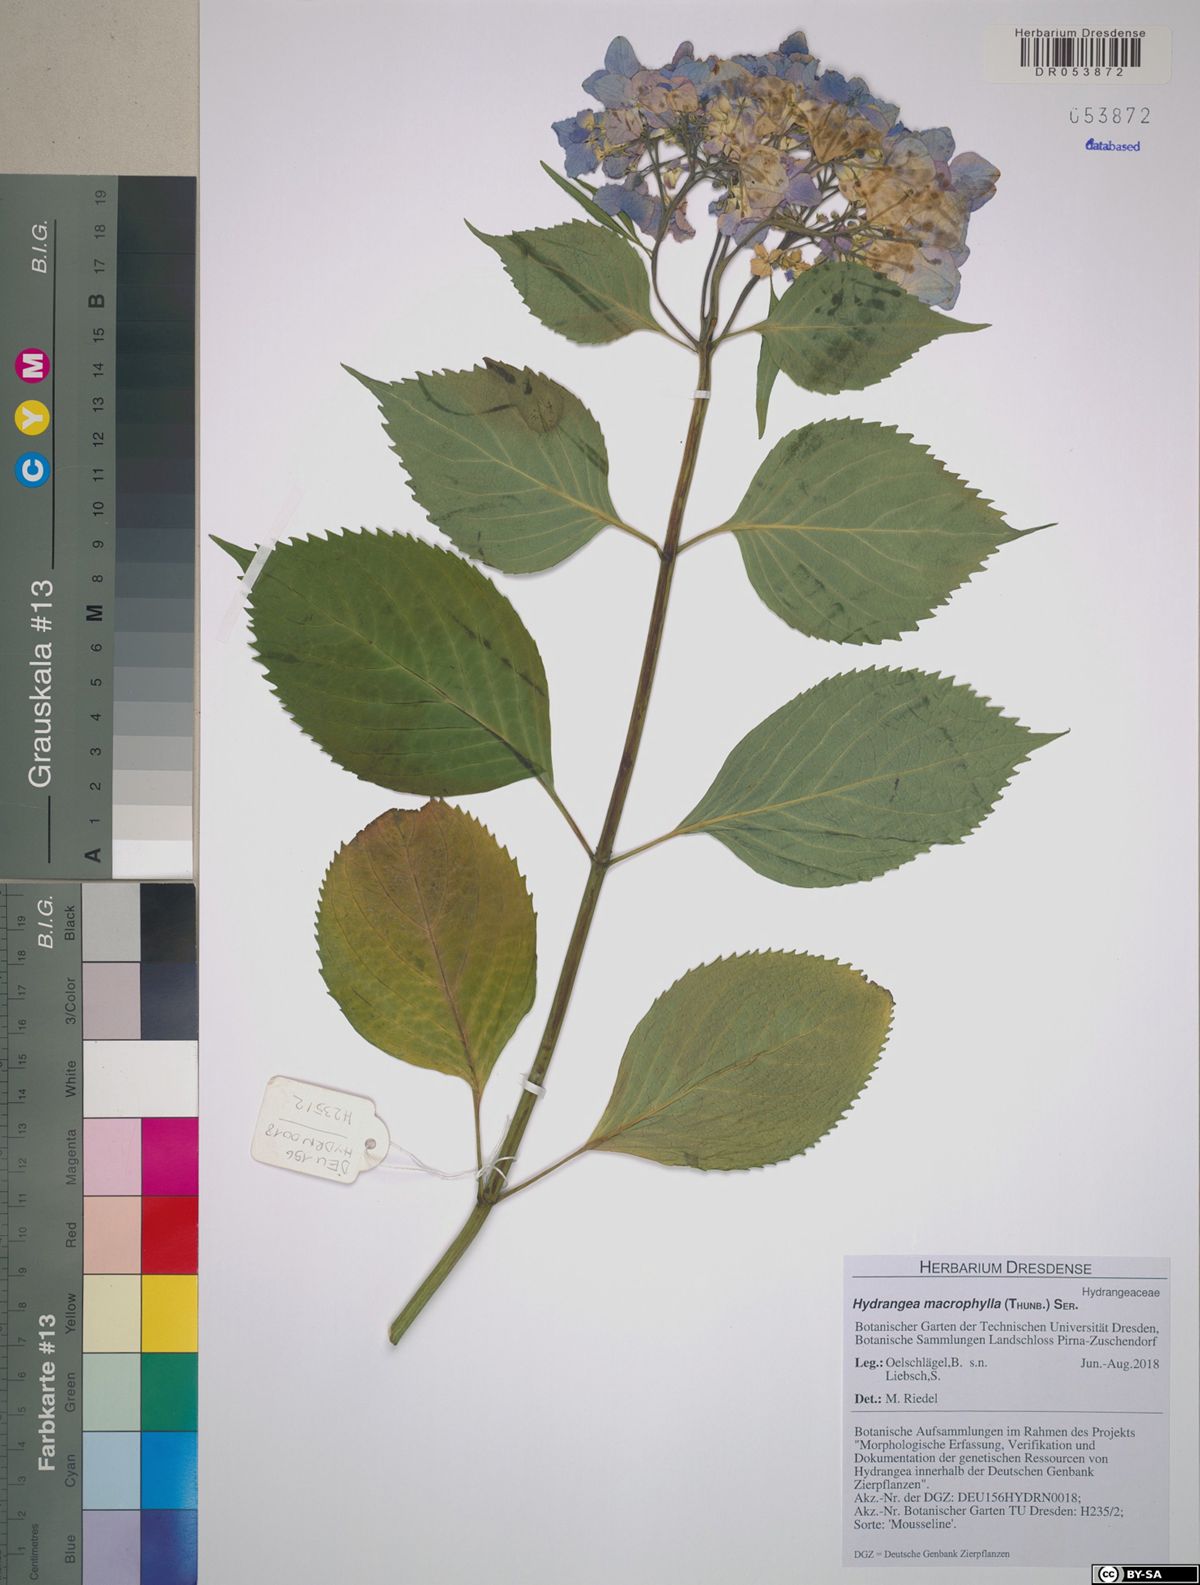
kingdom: Plantae
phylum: Tracheophyta
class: Magnoliopsida
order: Cornales
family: Hydrangeaceae
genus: Hydrangea
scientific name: Hydrangea macrophylla
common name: Hydrangea
